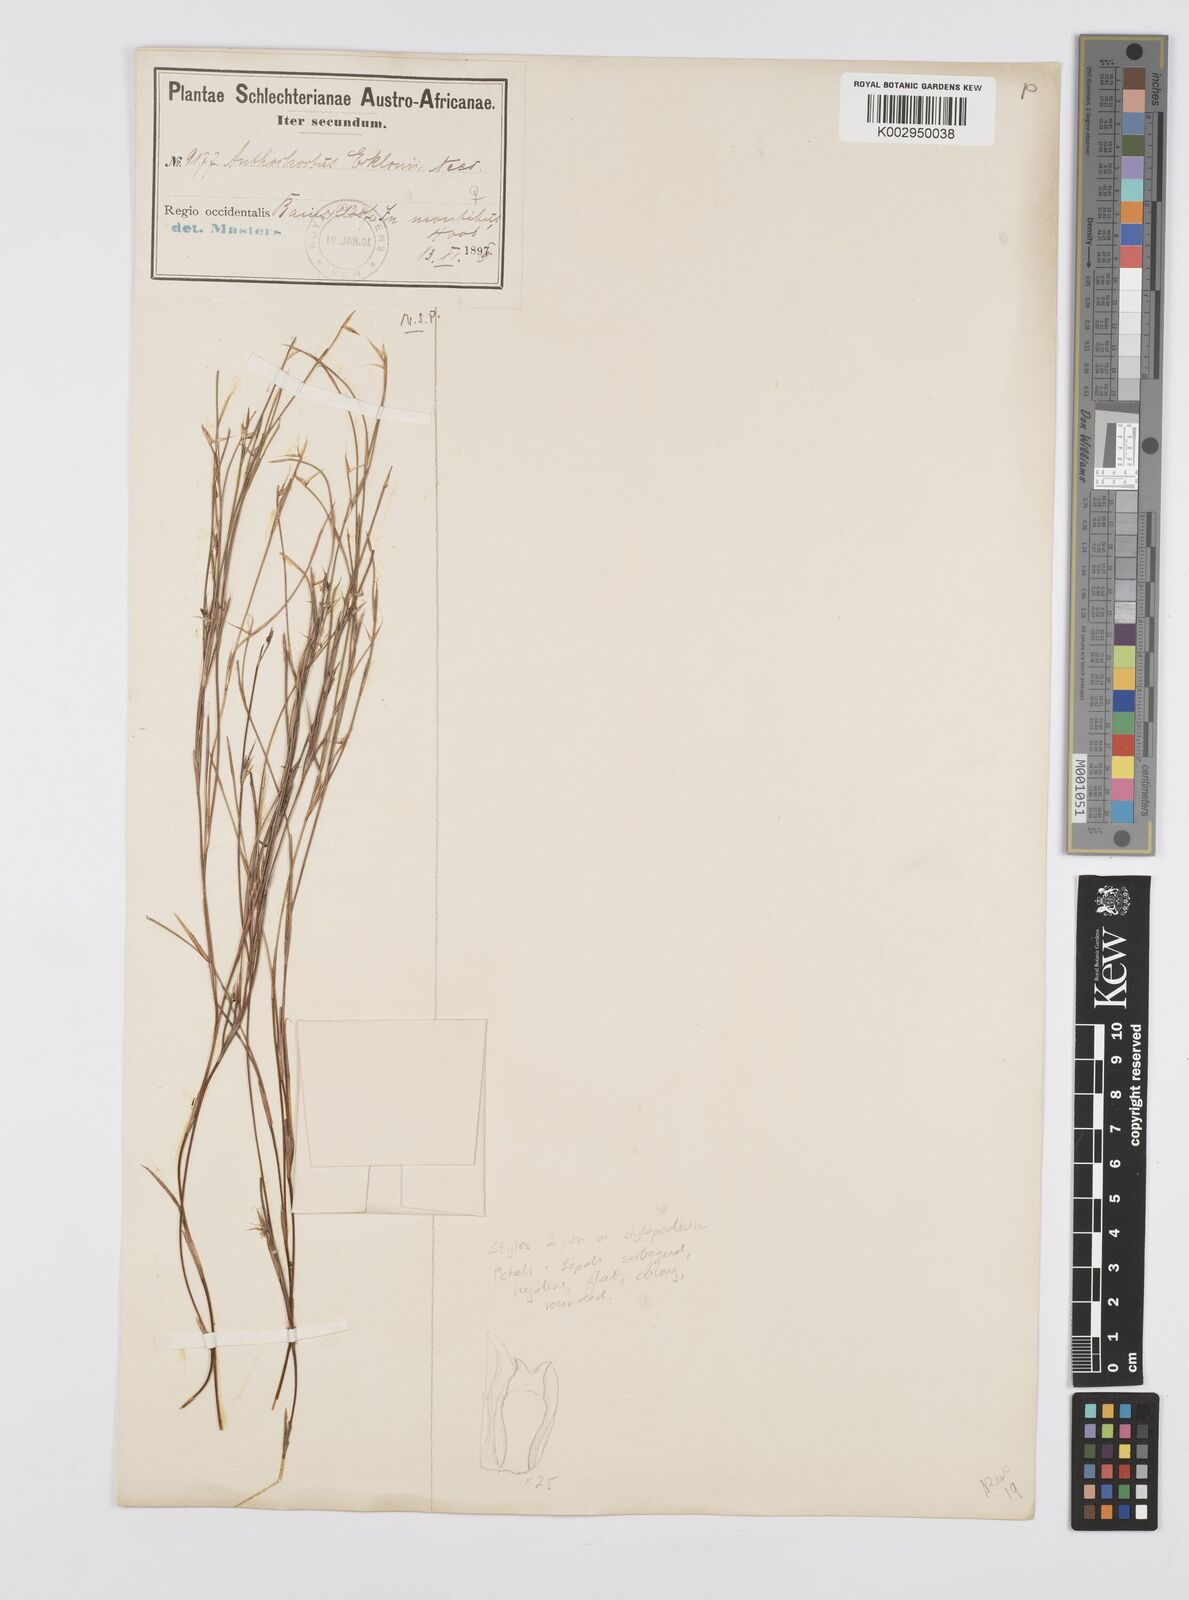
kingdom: Plantae
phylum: Tracheophyta
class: Liliopsida
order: Poales
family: Restionaceae
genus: Anthochortus
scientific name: Anthochortus ecklonii
